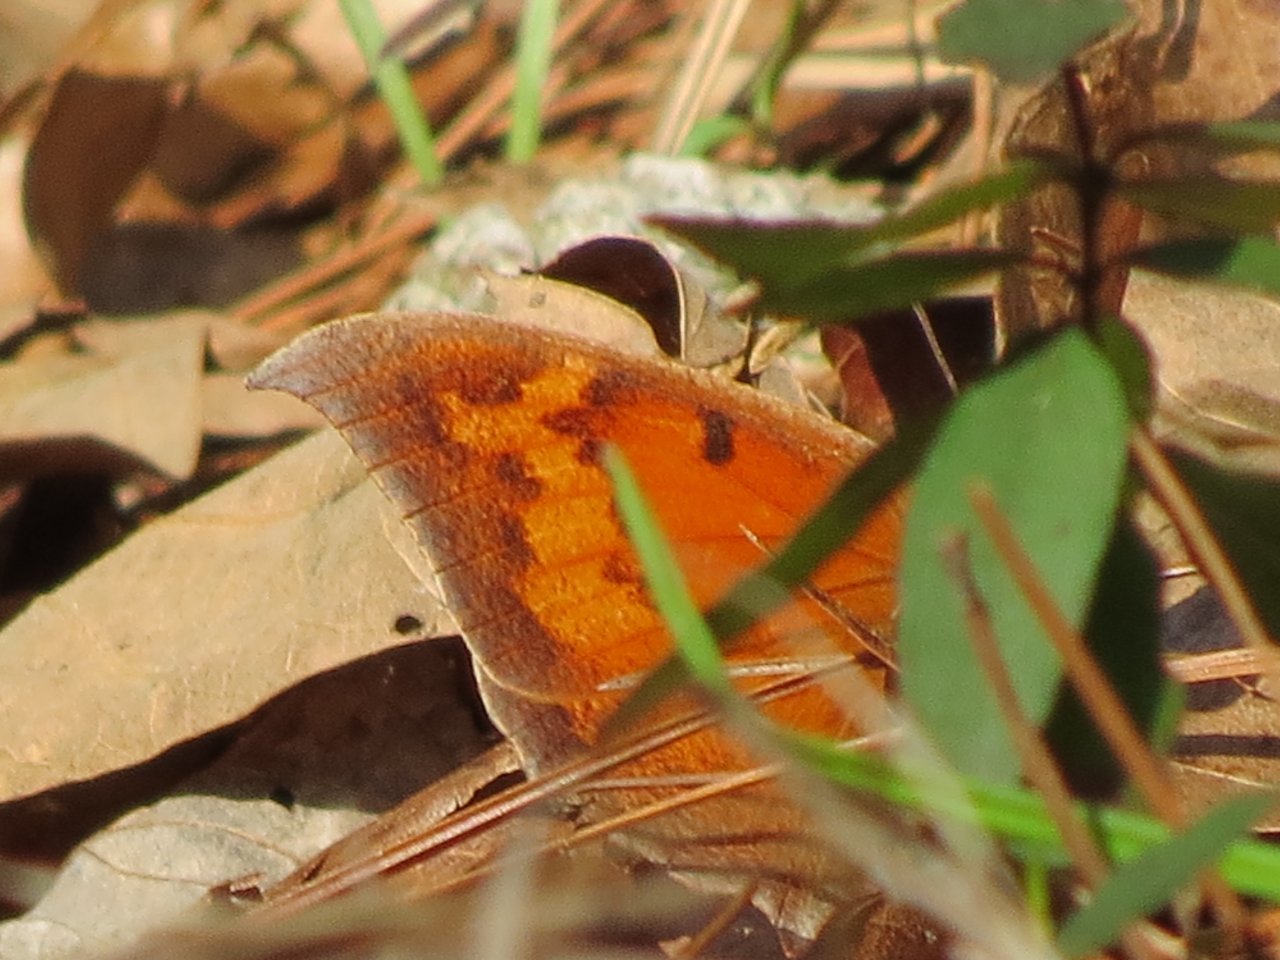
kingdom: Animalia
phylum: Arthropoda
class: Insecta
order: Lepidoptera
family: Nymphalidae
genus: Anaea
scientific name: Anaea andria
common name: Goatweed Leafwing
